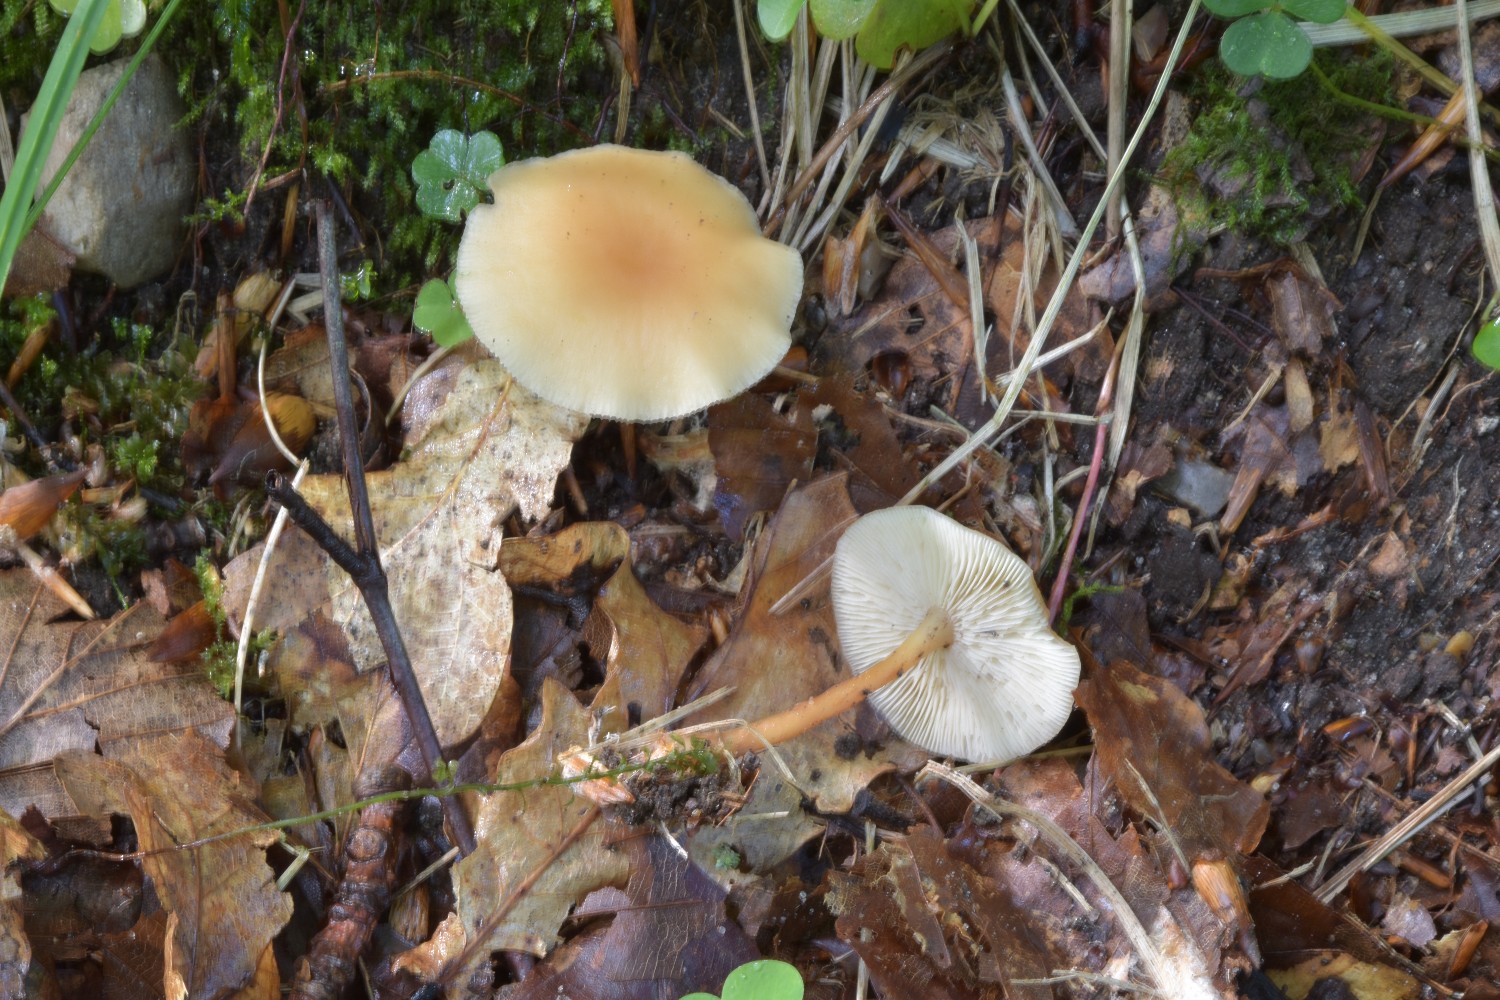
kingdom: Fungi
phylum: Basidiomycota
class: Agaricomycetes
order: Agaricales
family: Omphalotaceae
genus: Gymnopus
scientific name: Gymnopus dryophilus
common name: løv-fladhat
